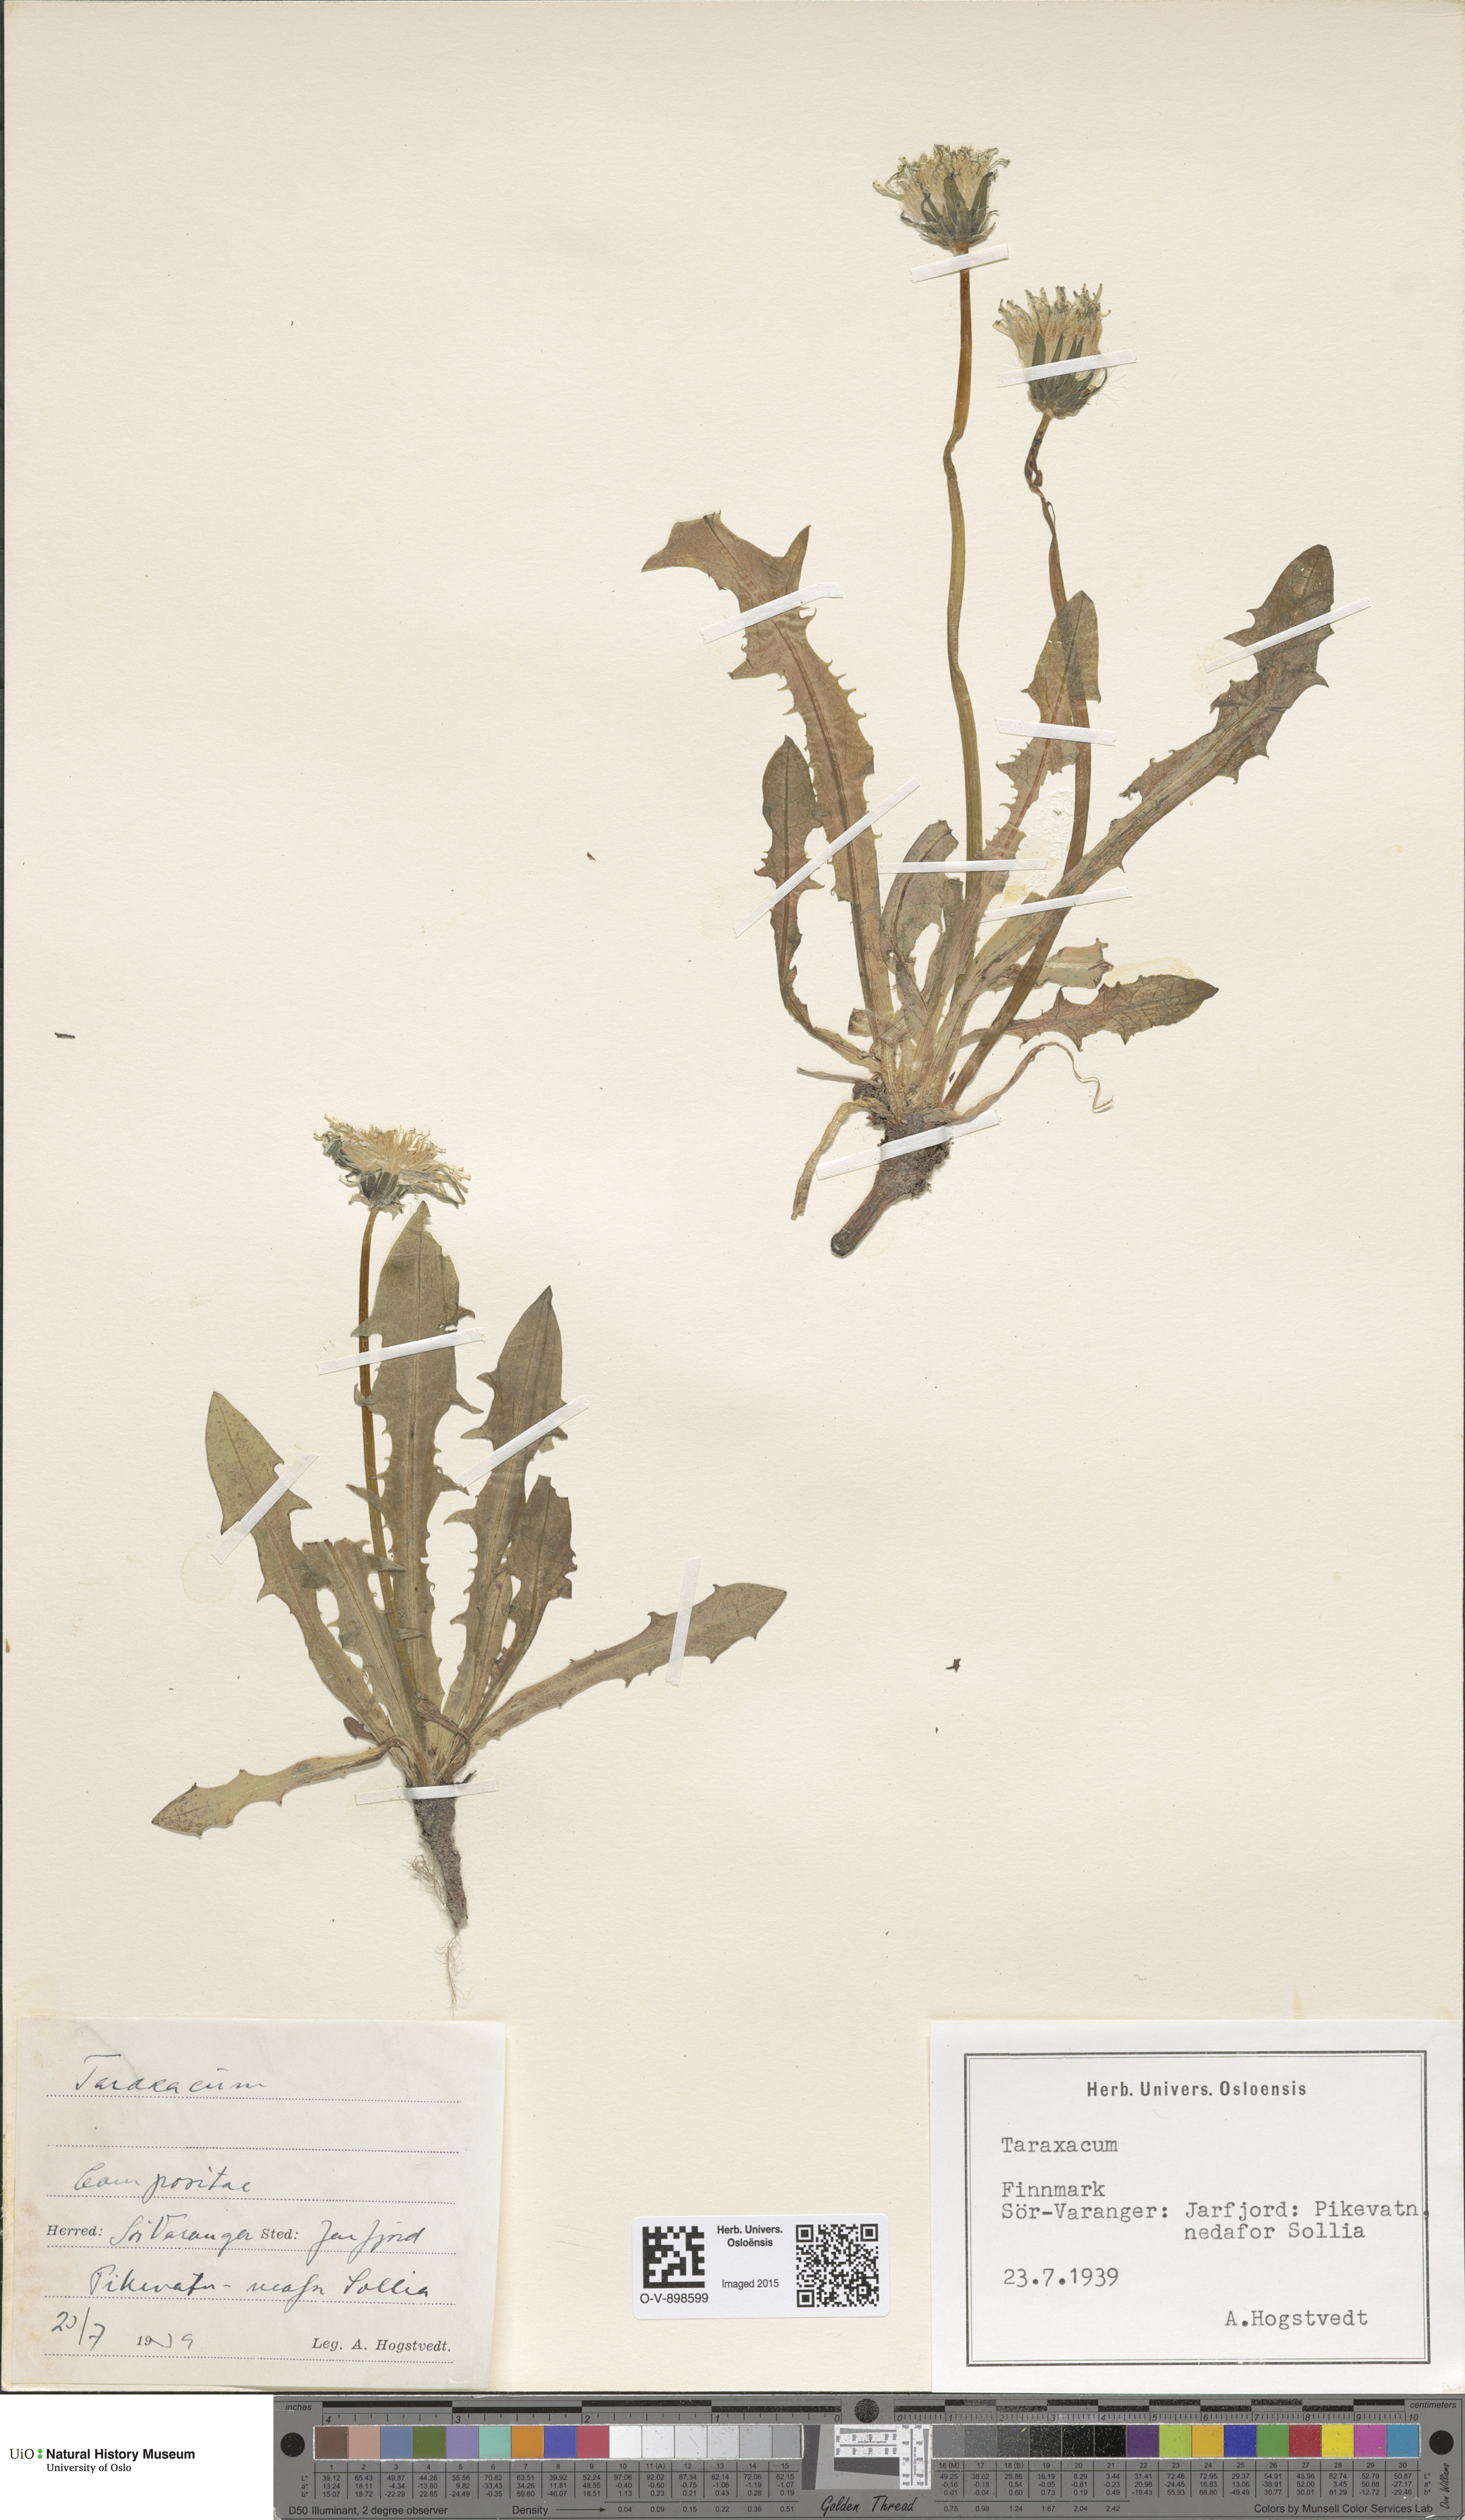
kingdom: Plantae
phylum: Tracheophyta
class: Magnoliopsida
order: Asterales
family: Asteraceae
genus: Taraxacum
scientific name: Taraxacum
